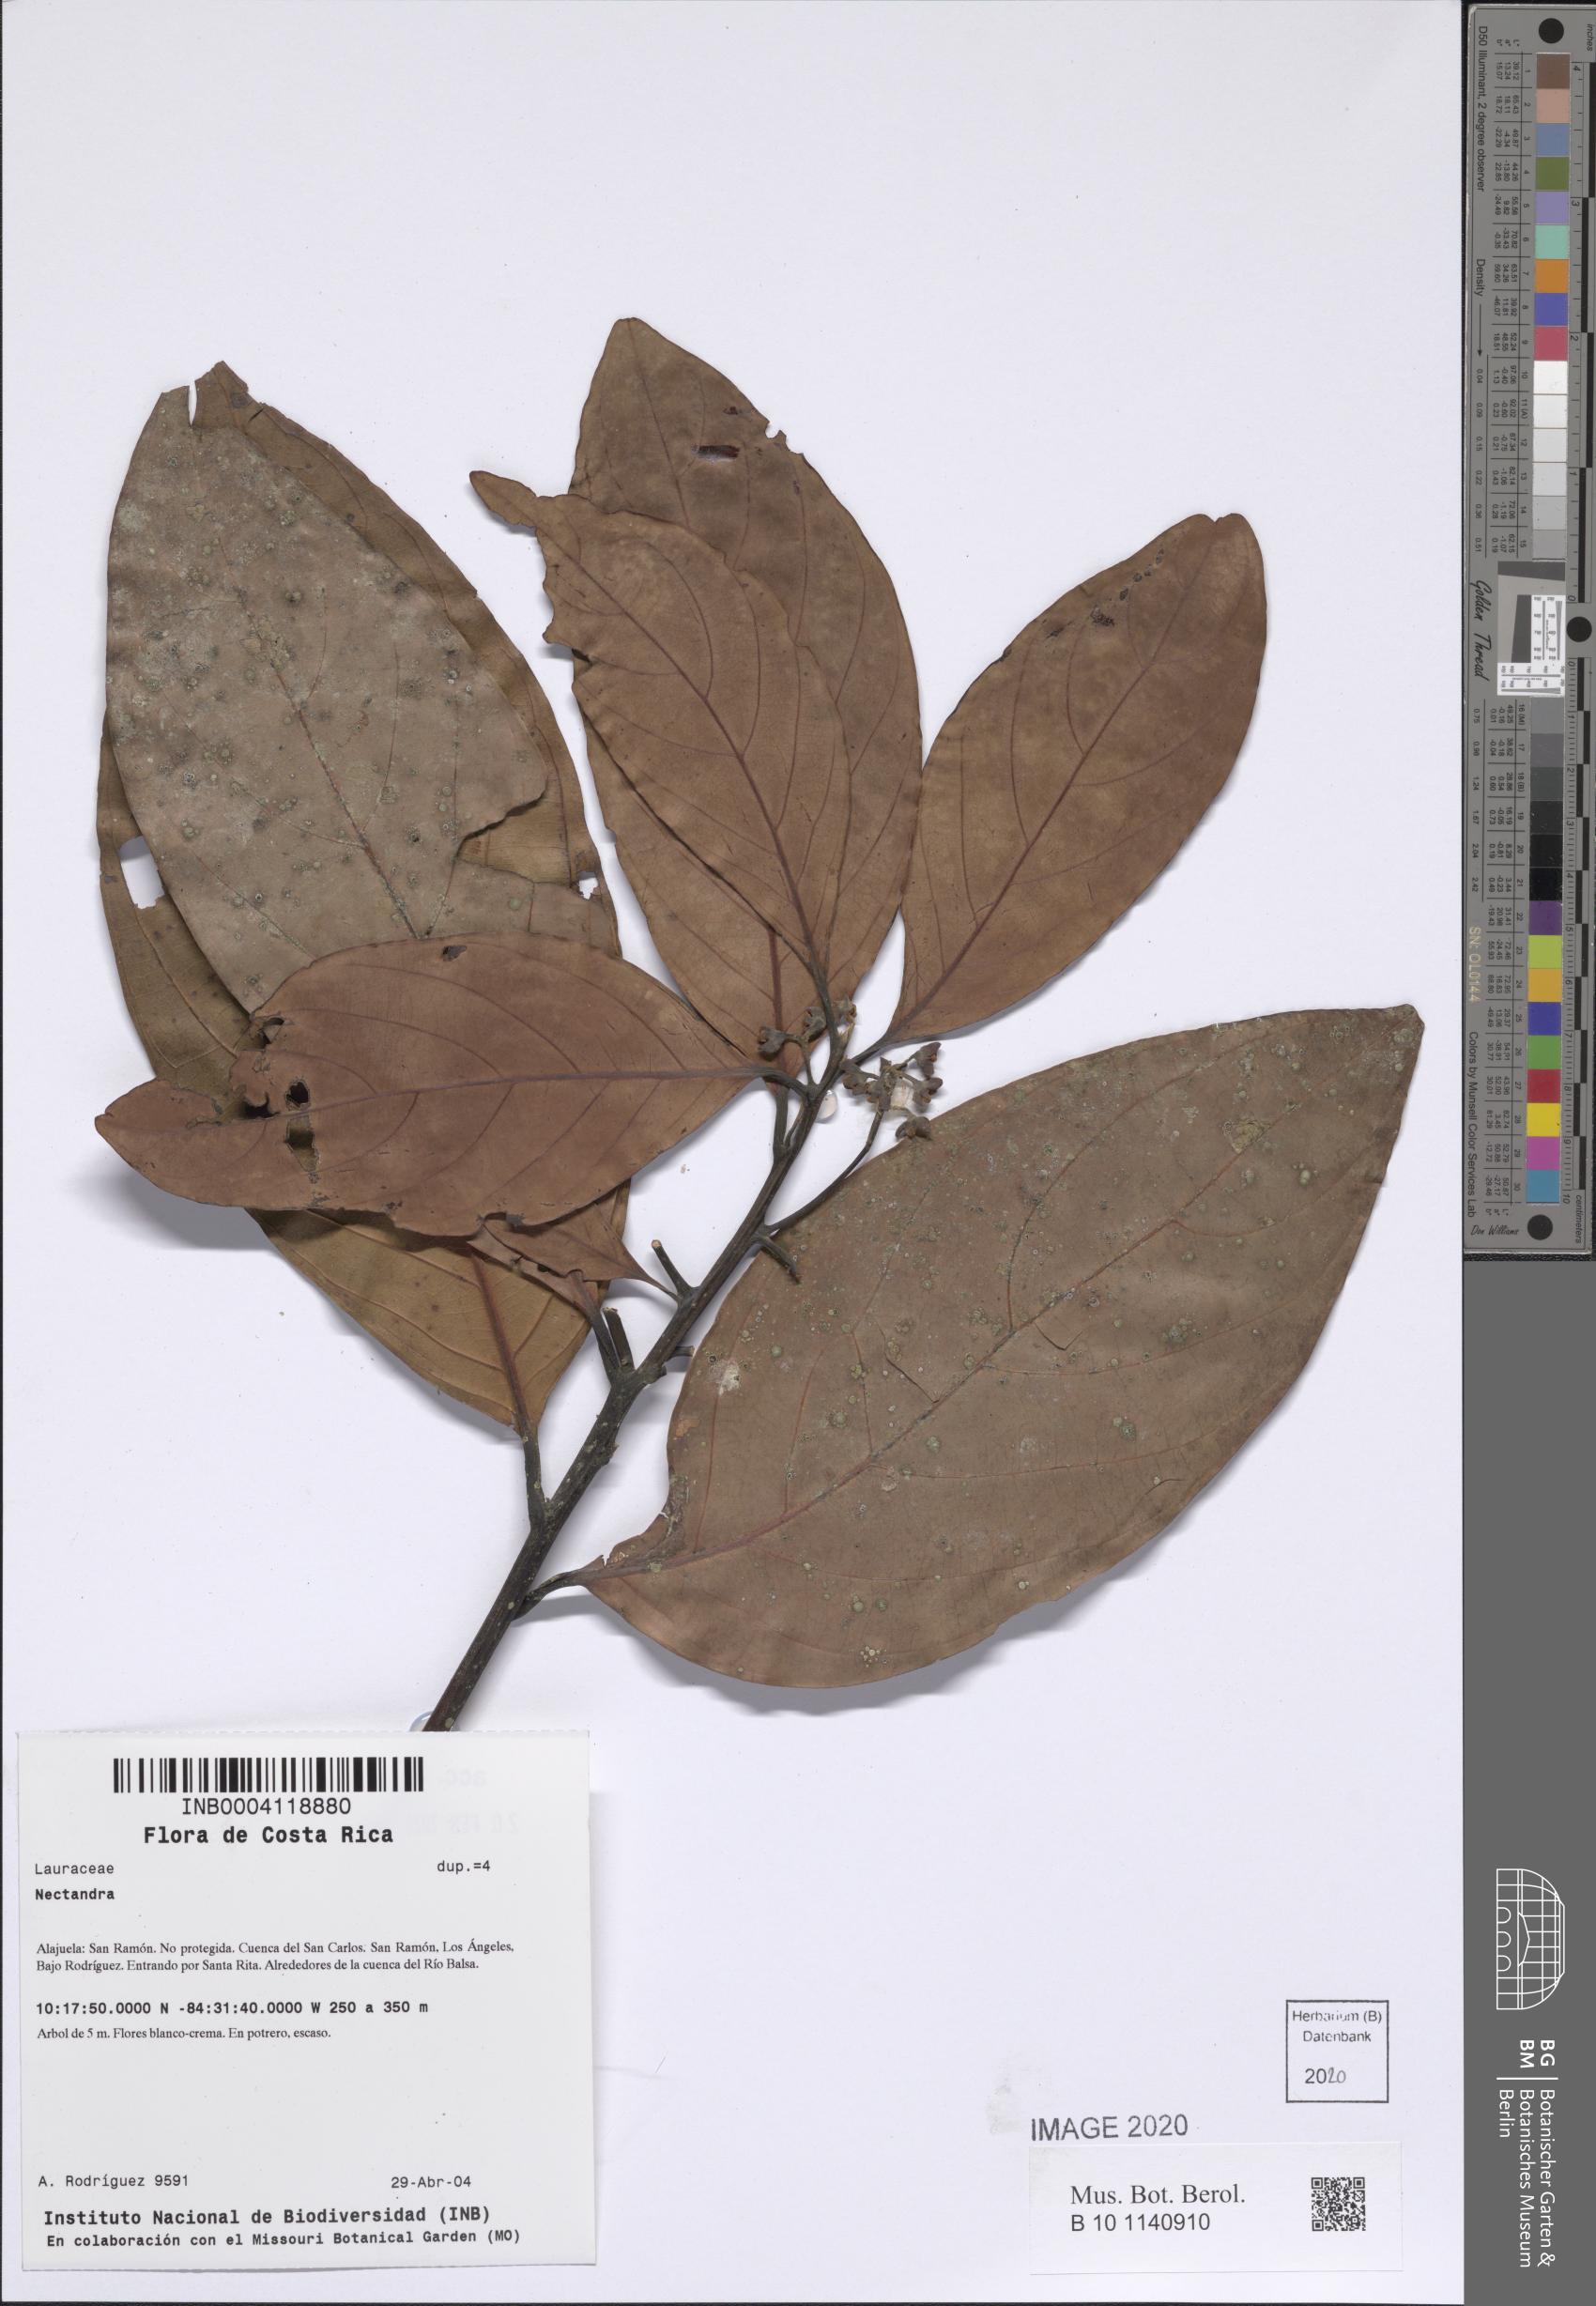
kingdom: Plantae
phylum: Tracheophyta
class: Magnoliopsida
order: Laurales
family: Lauraceae
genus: Nectandra
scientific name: Nectandra
